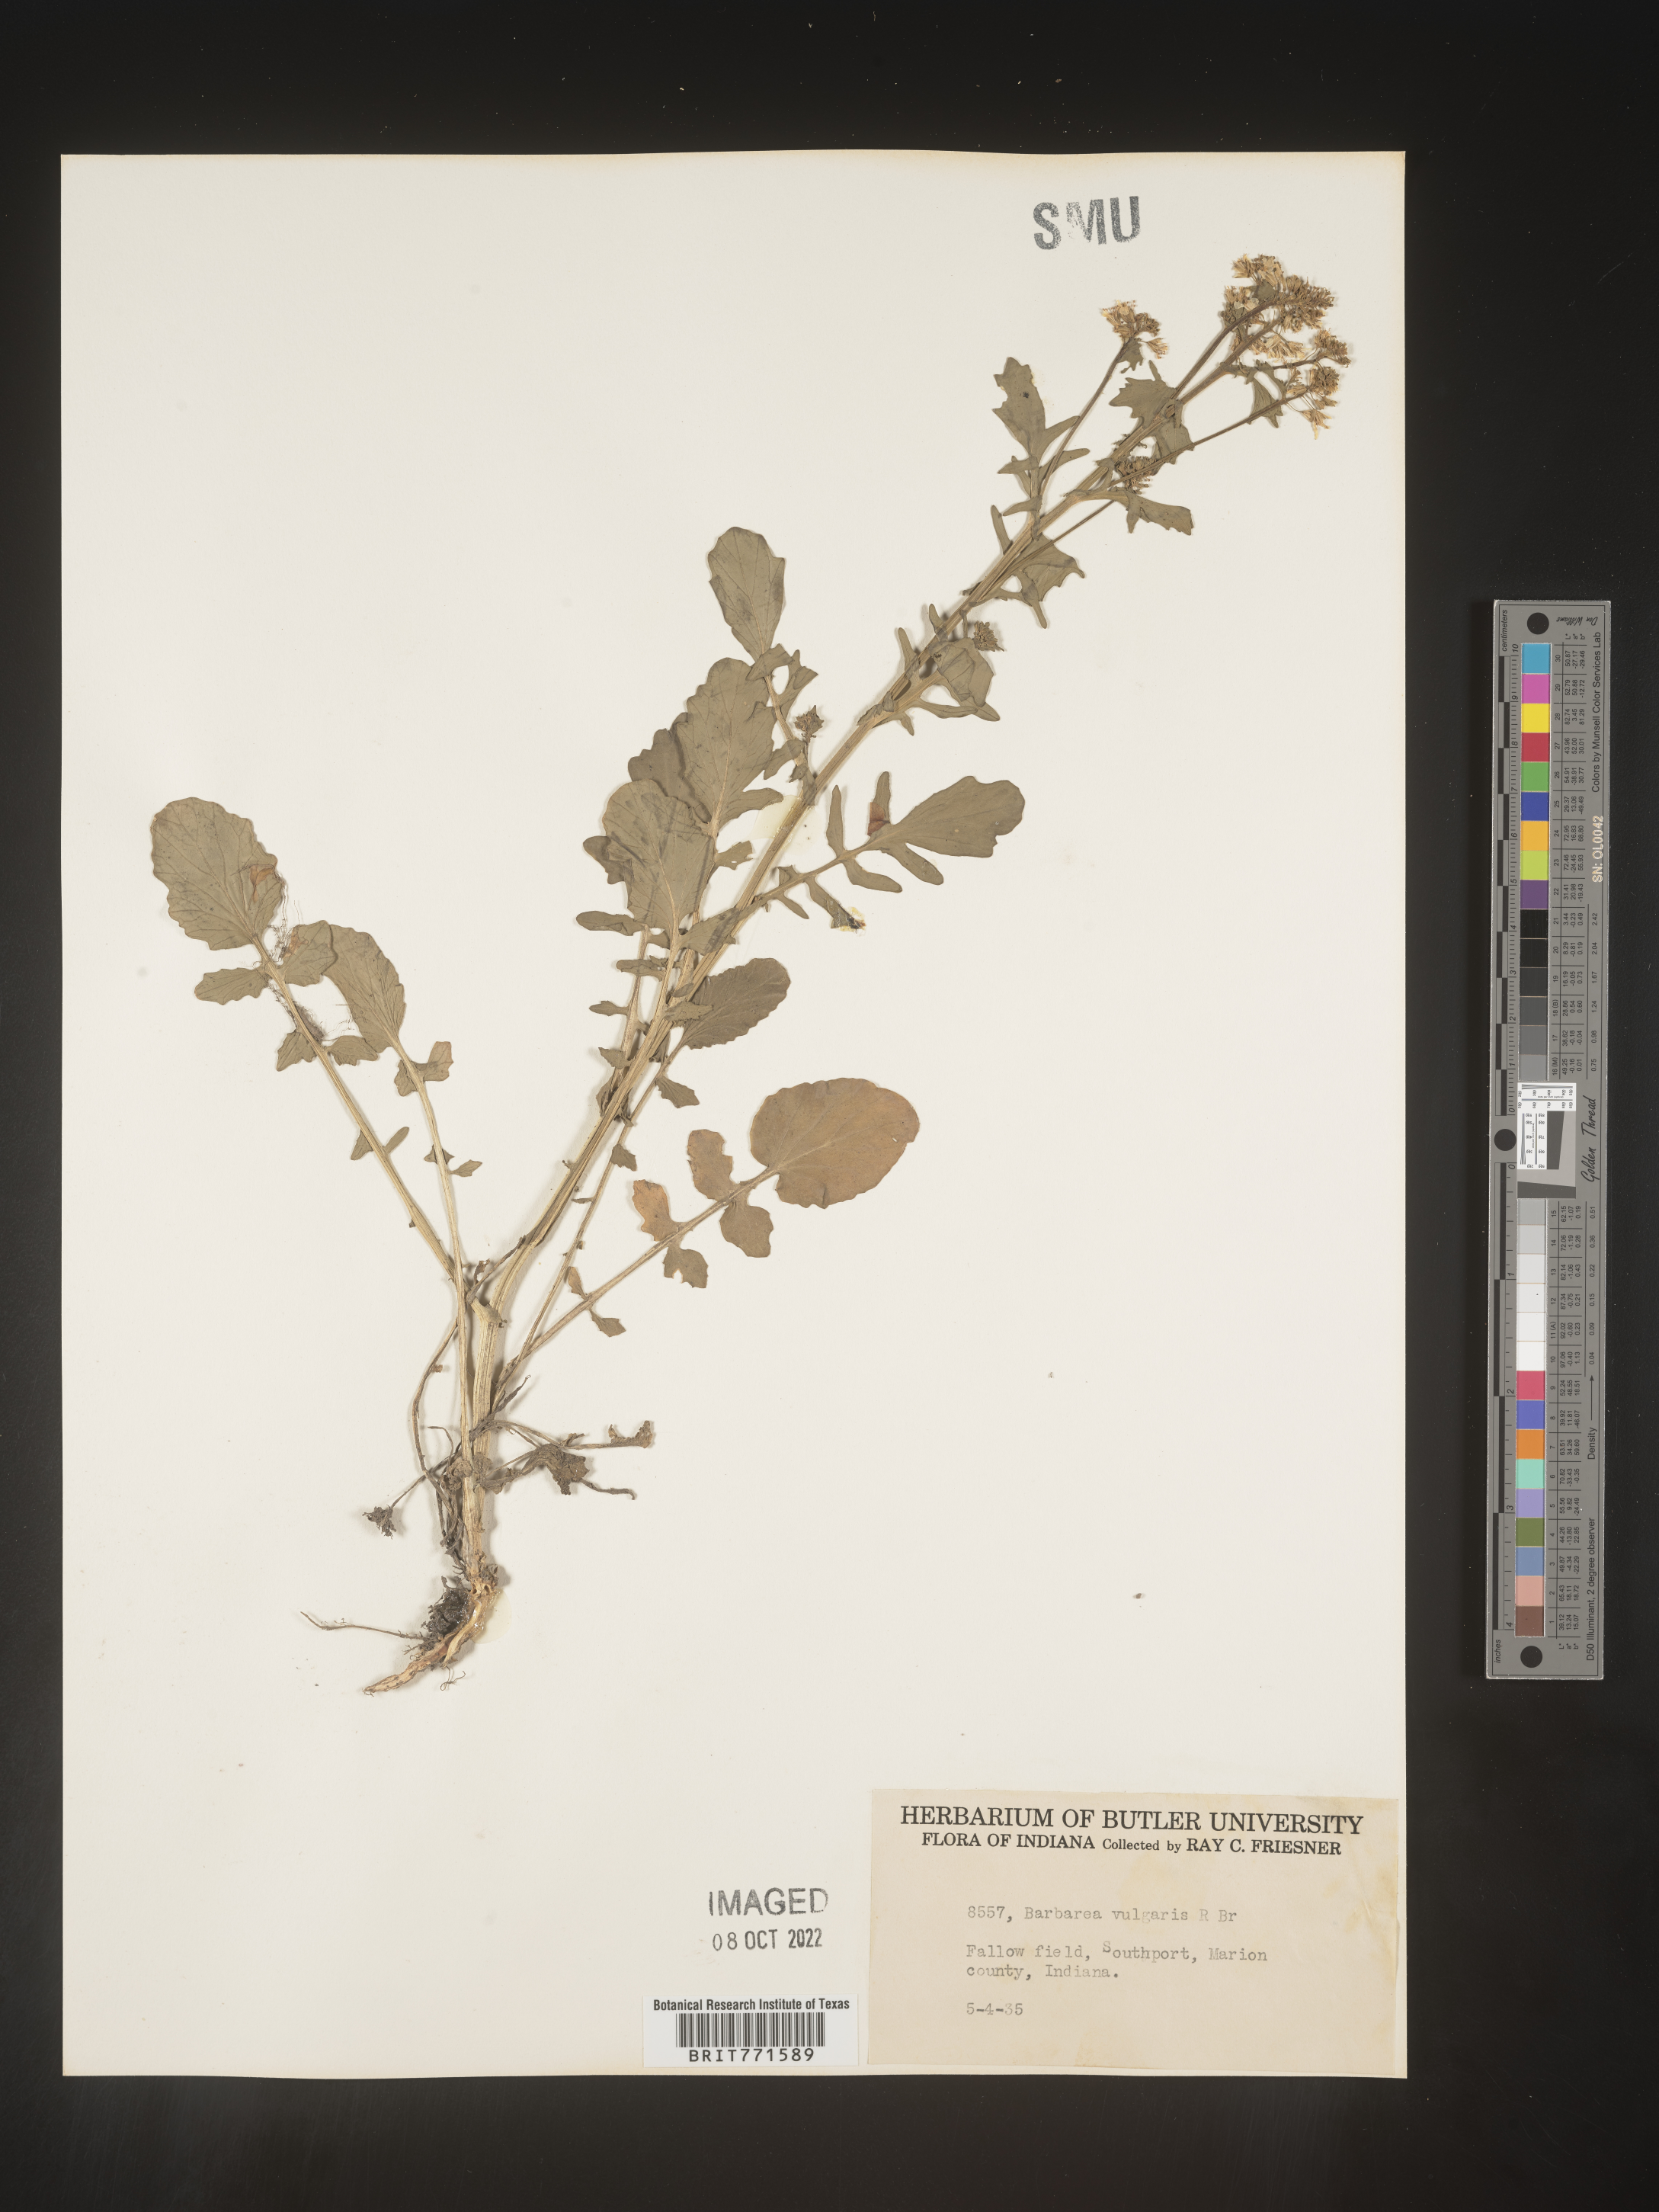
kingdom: Plantae
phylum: Tracheophyta
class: Magnoliopsida
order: Brassicales
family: Brassicaceae
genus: Barbarea
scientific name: Barbarea vulgaris
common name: Cressy-greens
